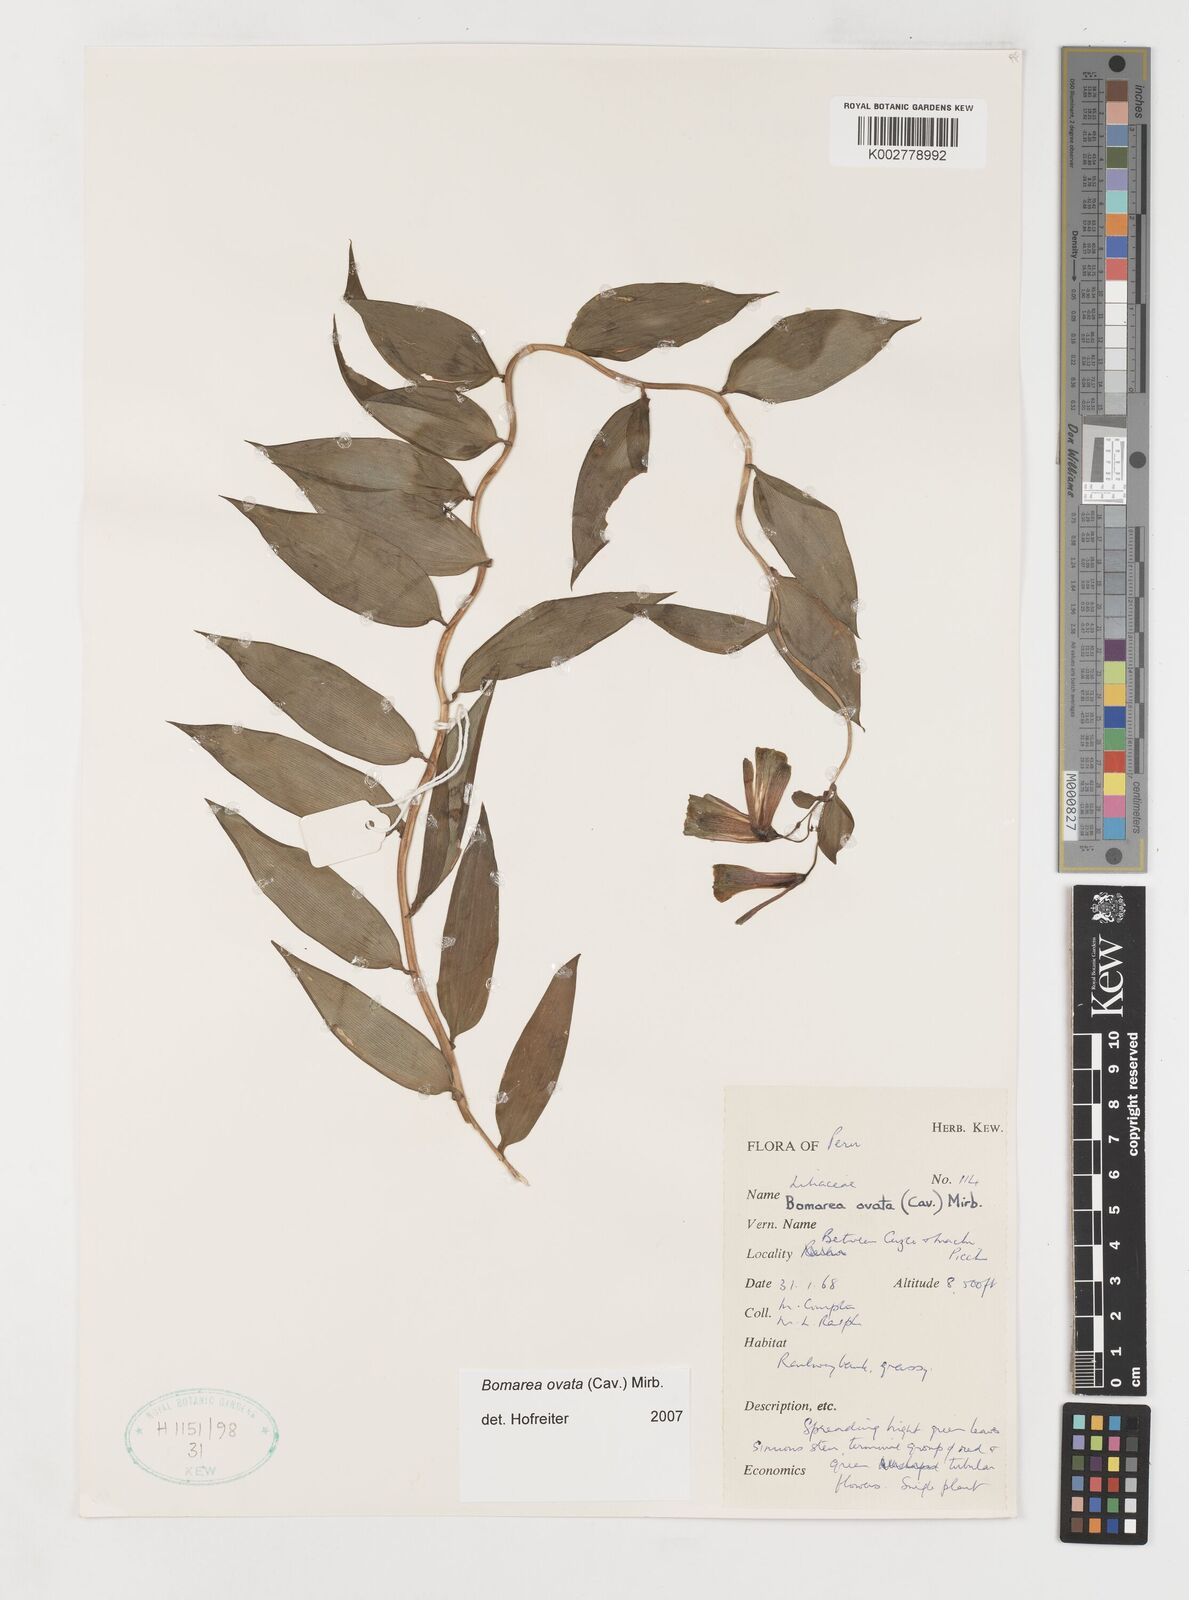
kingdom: Plantae
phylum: Tracheophyta
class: Liliopsida
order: Liliales
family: Alstroemeriaceae
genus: Bomarea
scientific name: Bomarea ovata
